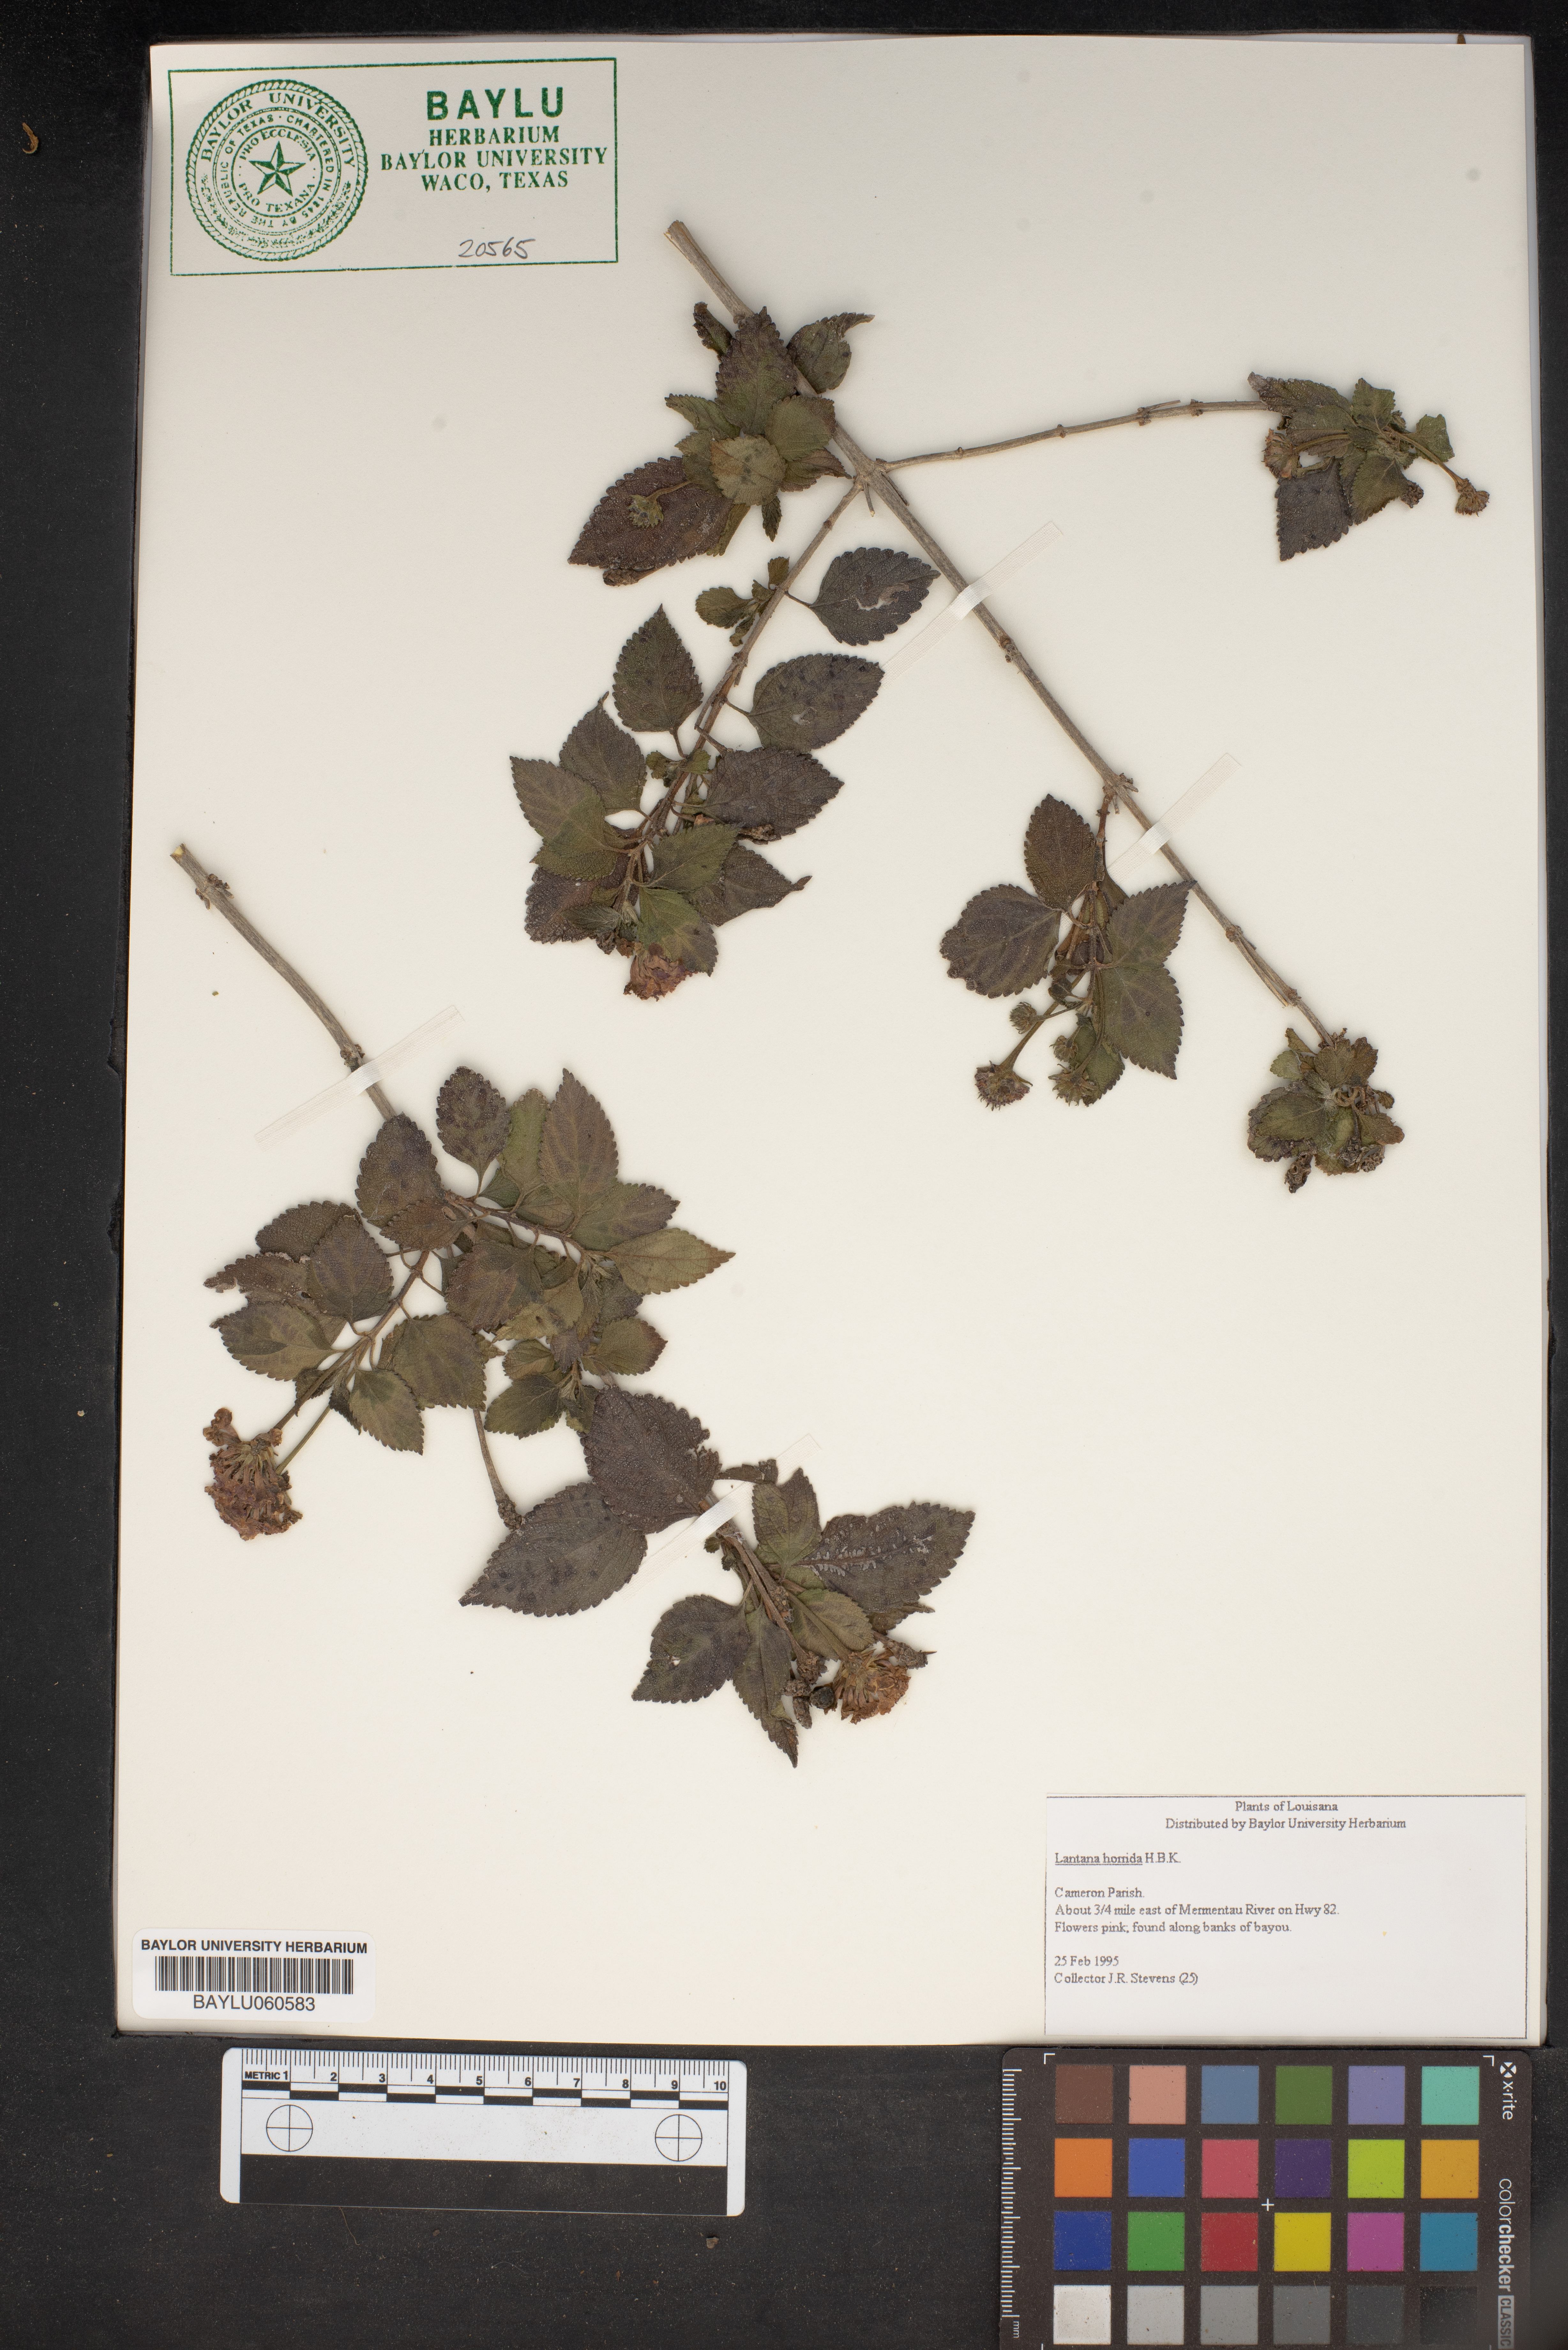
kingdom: Plantae
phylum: Tracheophyta
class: Magnoliopsida
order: Lamiales
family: Verbenaceae
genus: Lantana
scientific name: Lantana horrida
